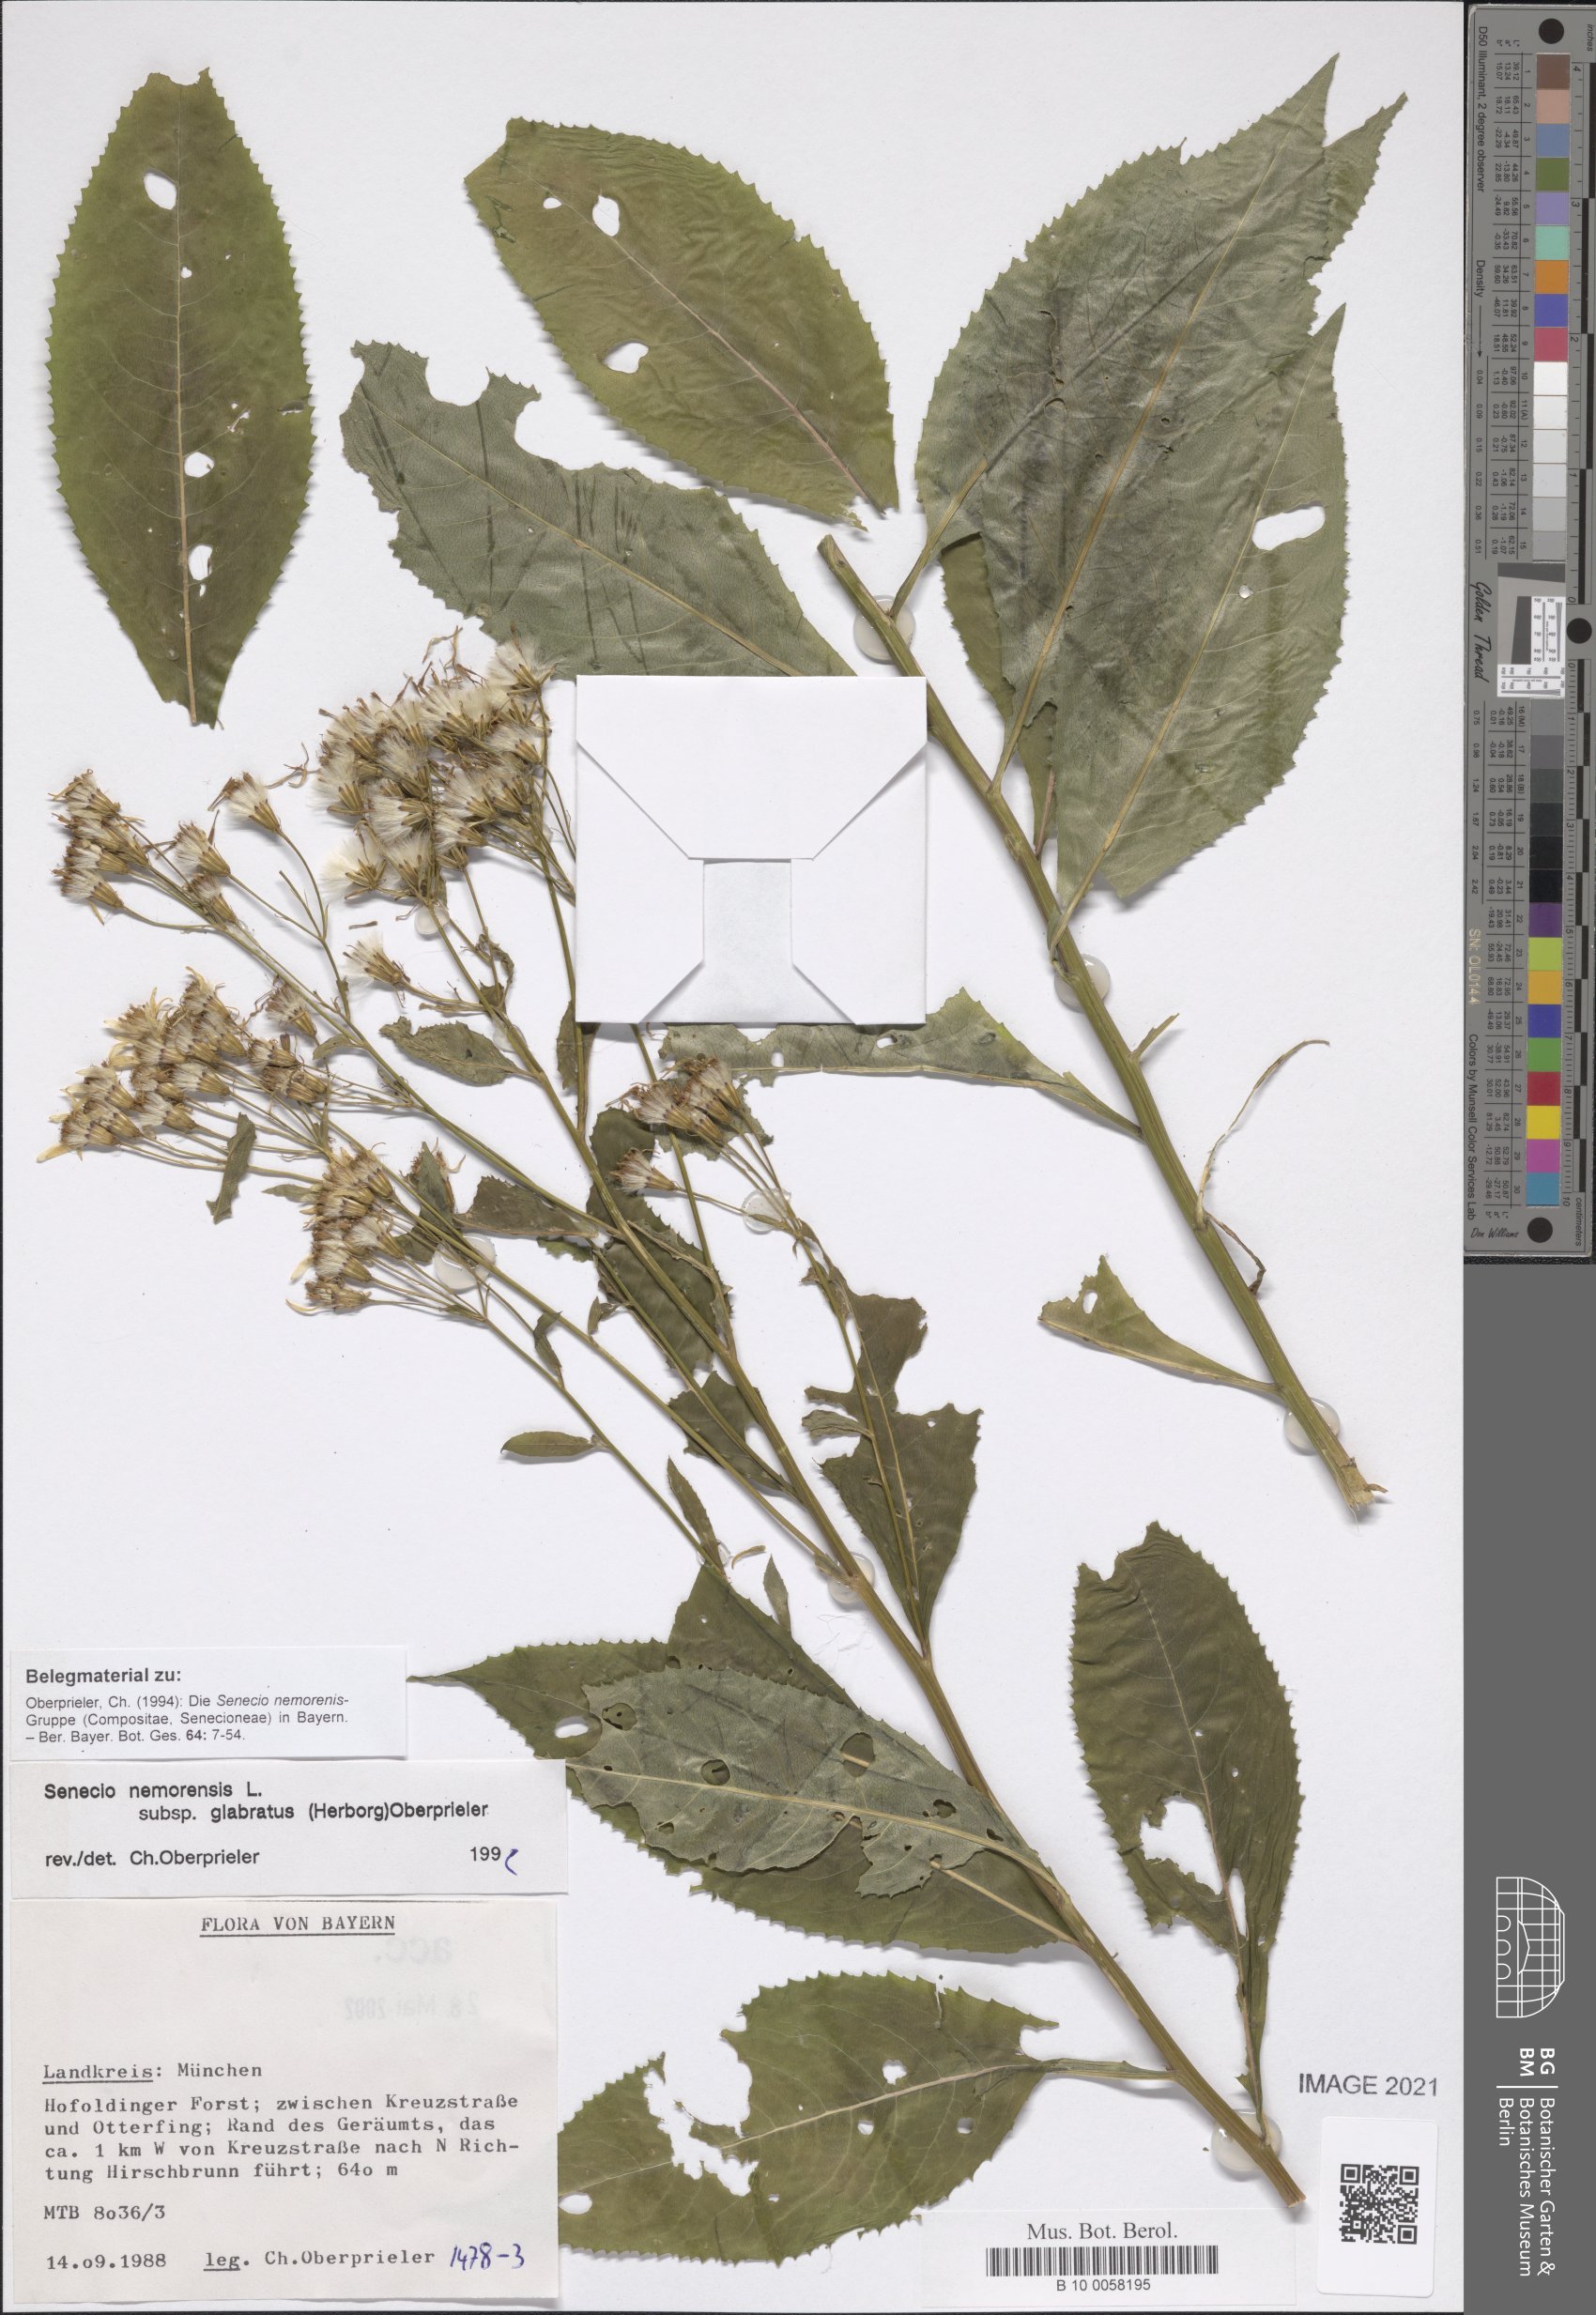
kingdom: Plantae
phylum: Tracheophyta
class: Magnoliopsida
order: Asterales
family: Asteraceae
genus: Senecio
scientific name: Senecio germanicus
